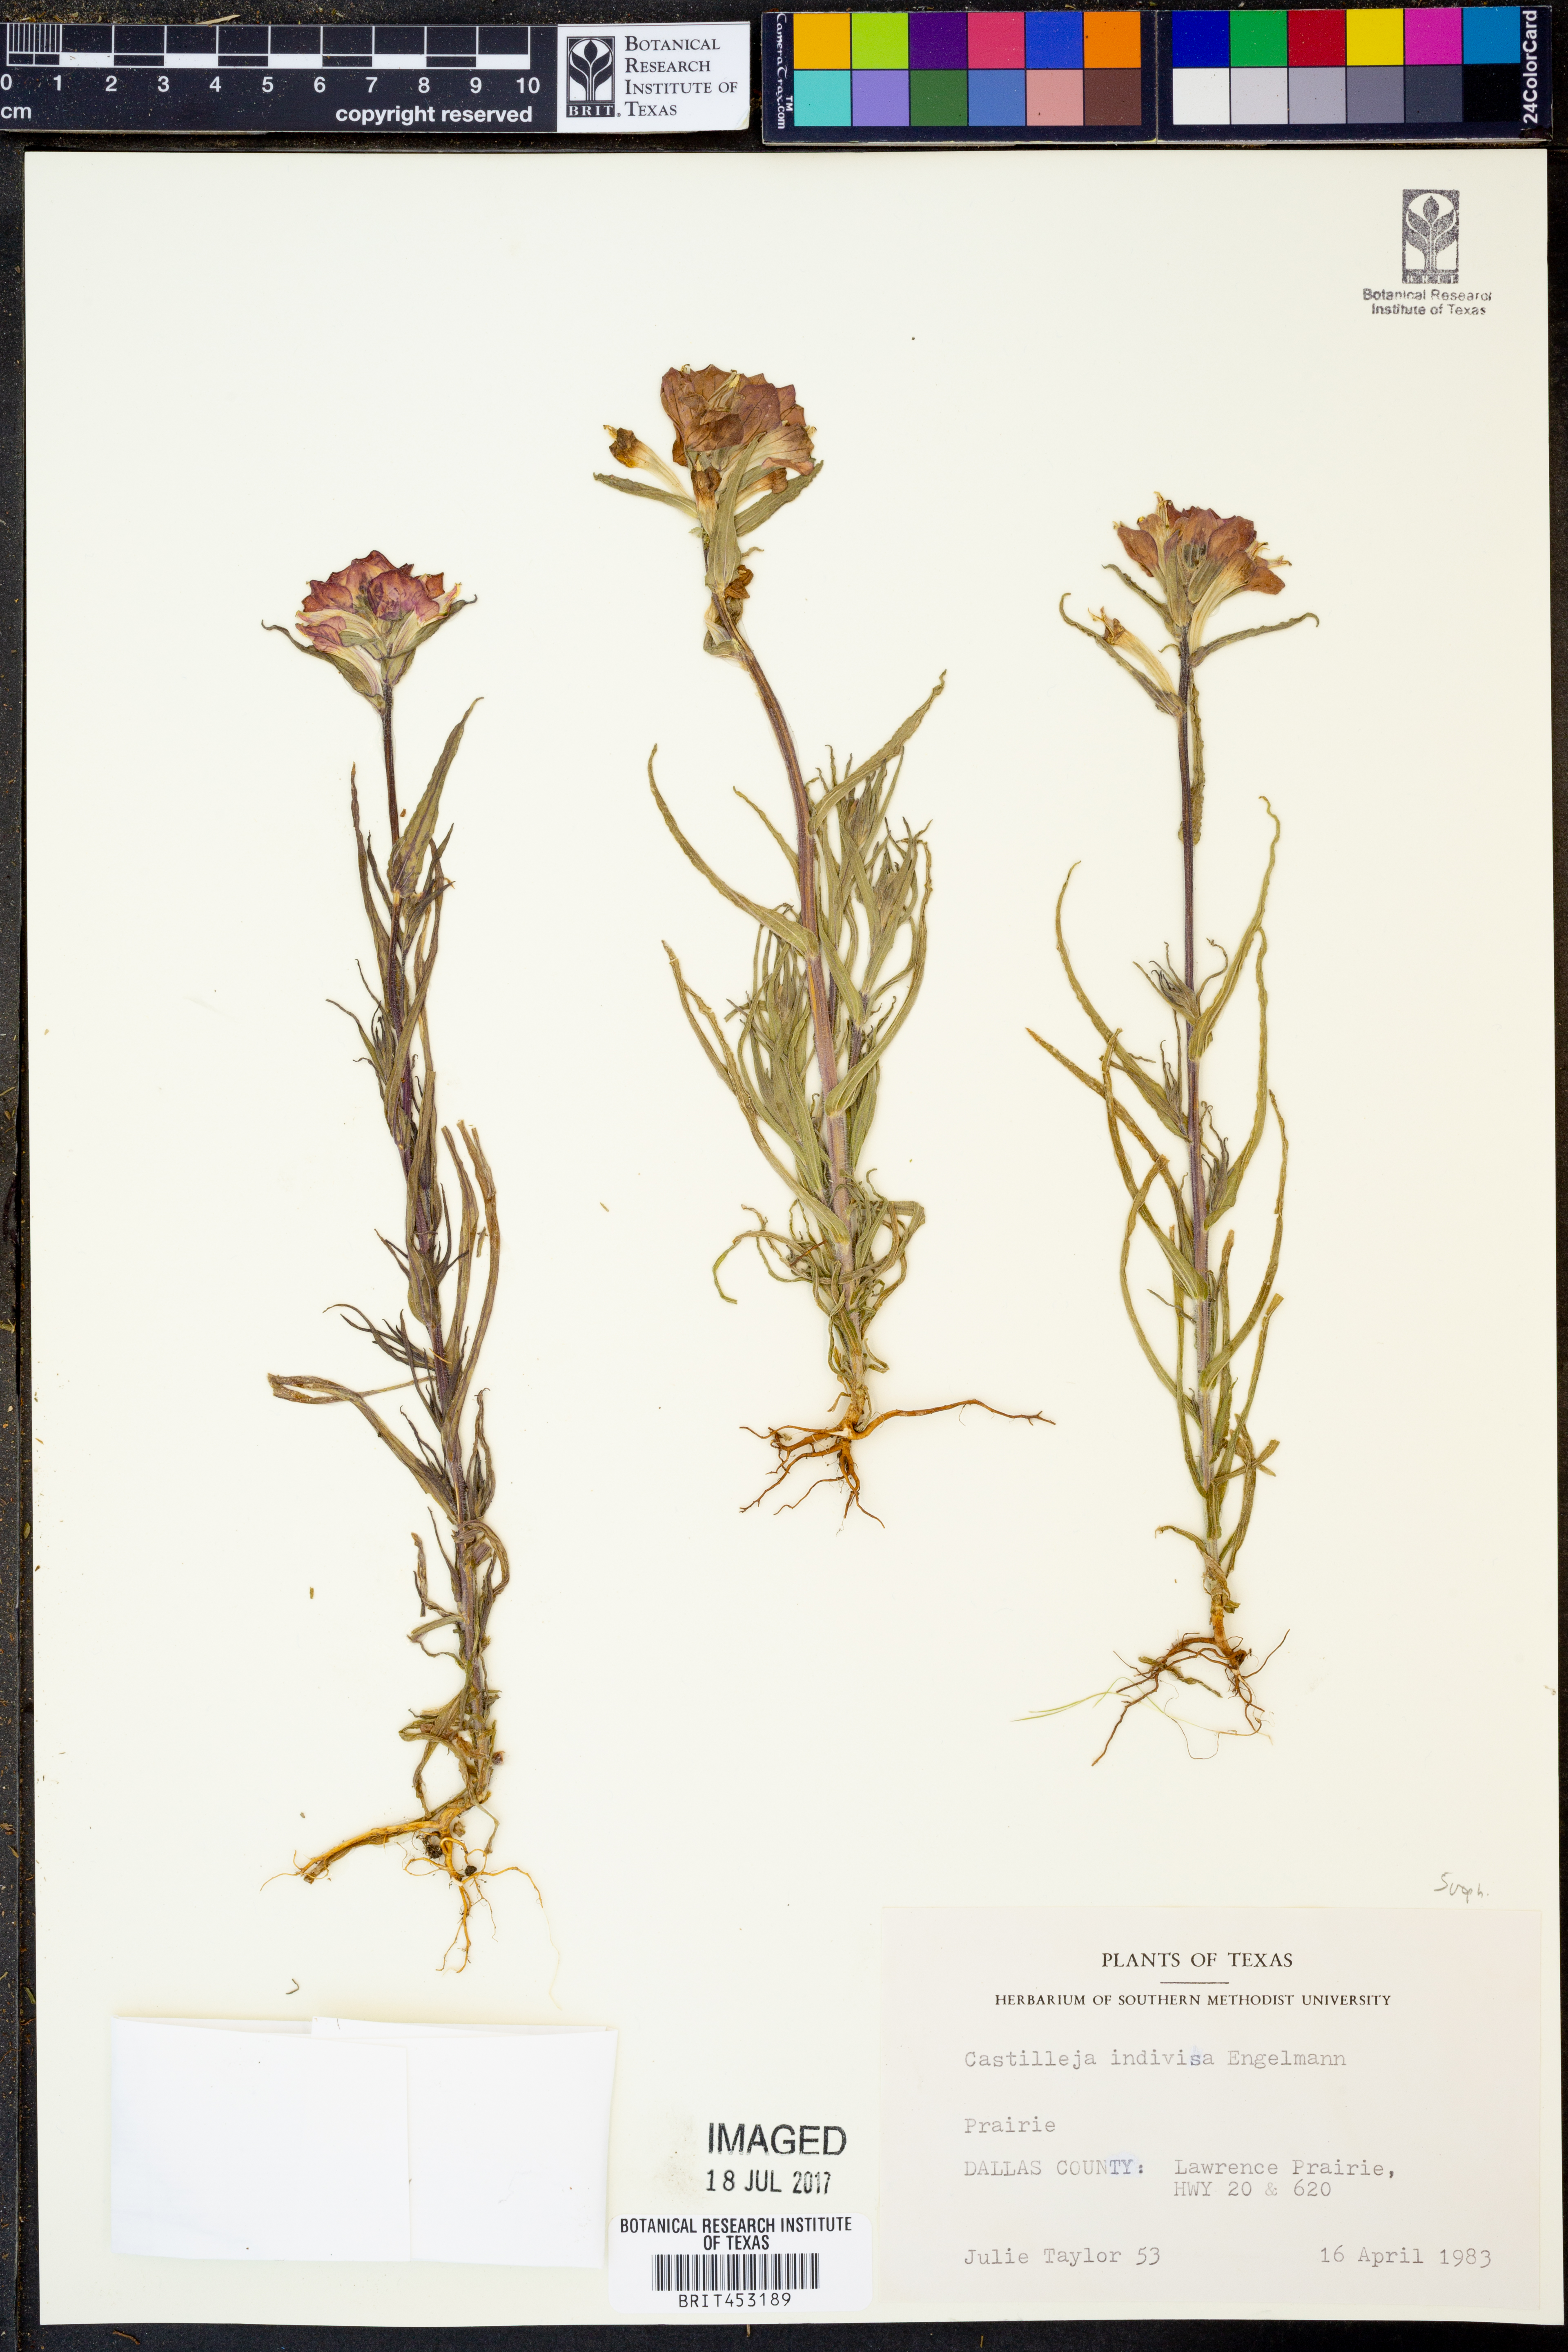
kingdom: Plantae
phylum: Tracheophyta
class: Magnoliopsida
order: Lamiales
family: Orobanchaceae
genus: Castilleja
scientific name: Castilleja indivisa
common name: Texas paintbrush
